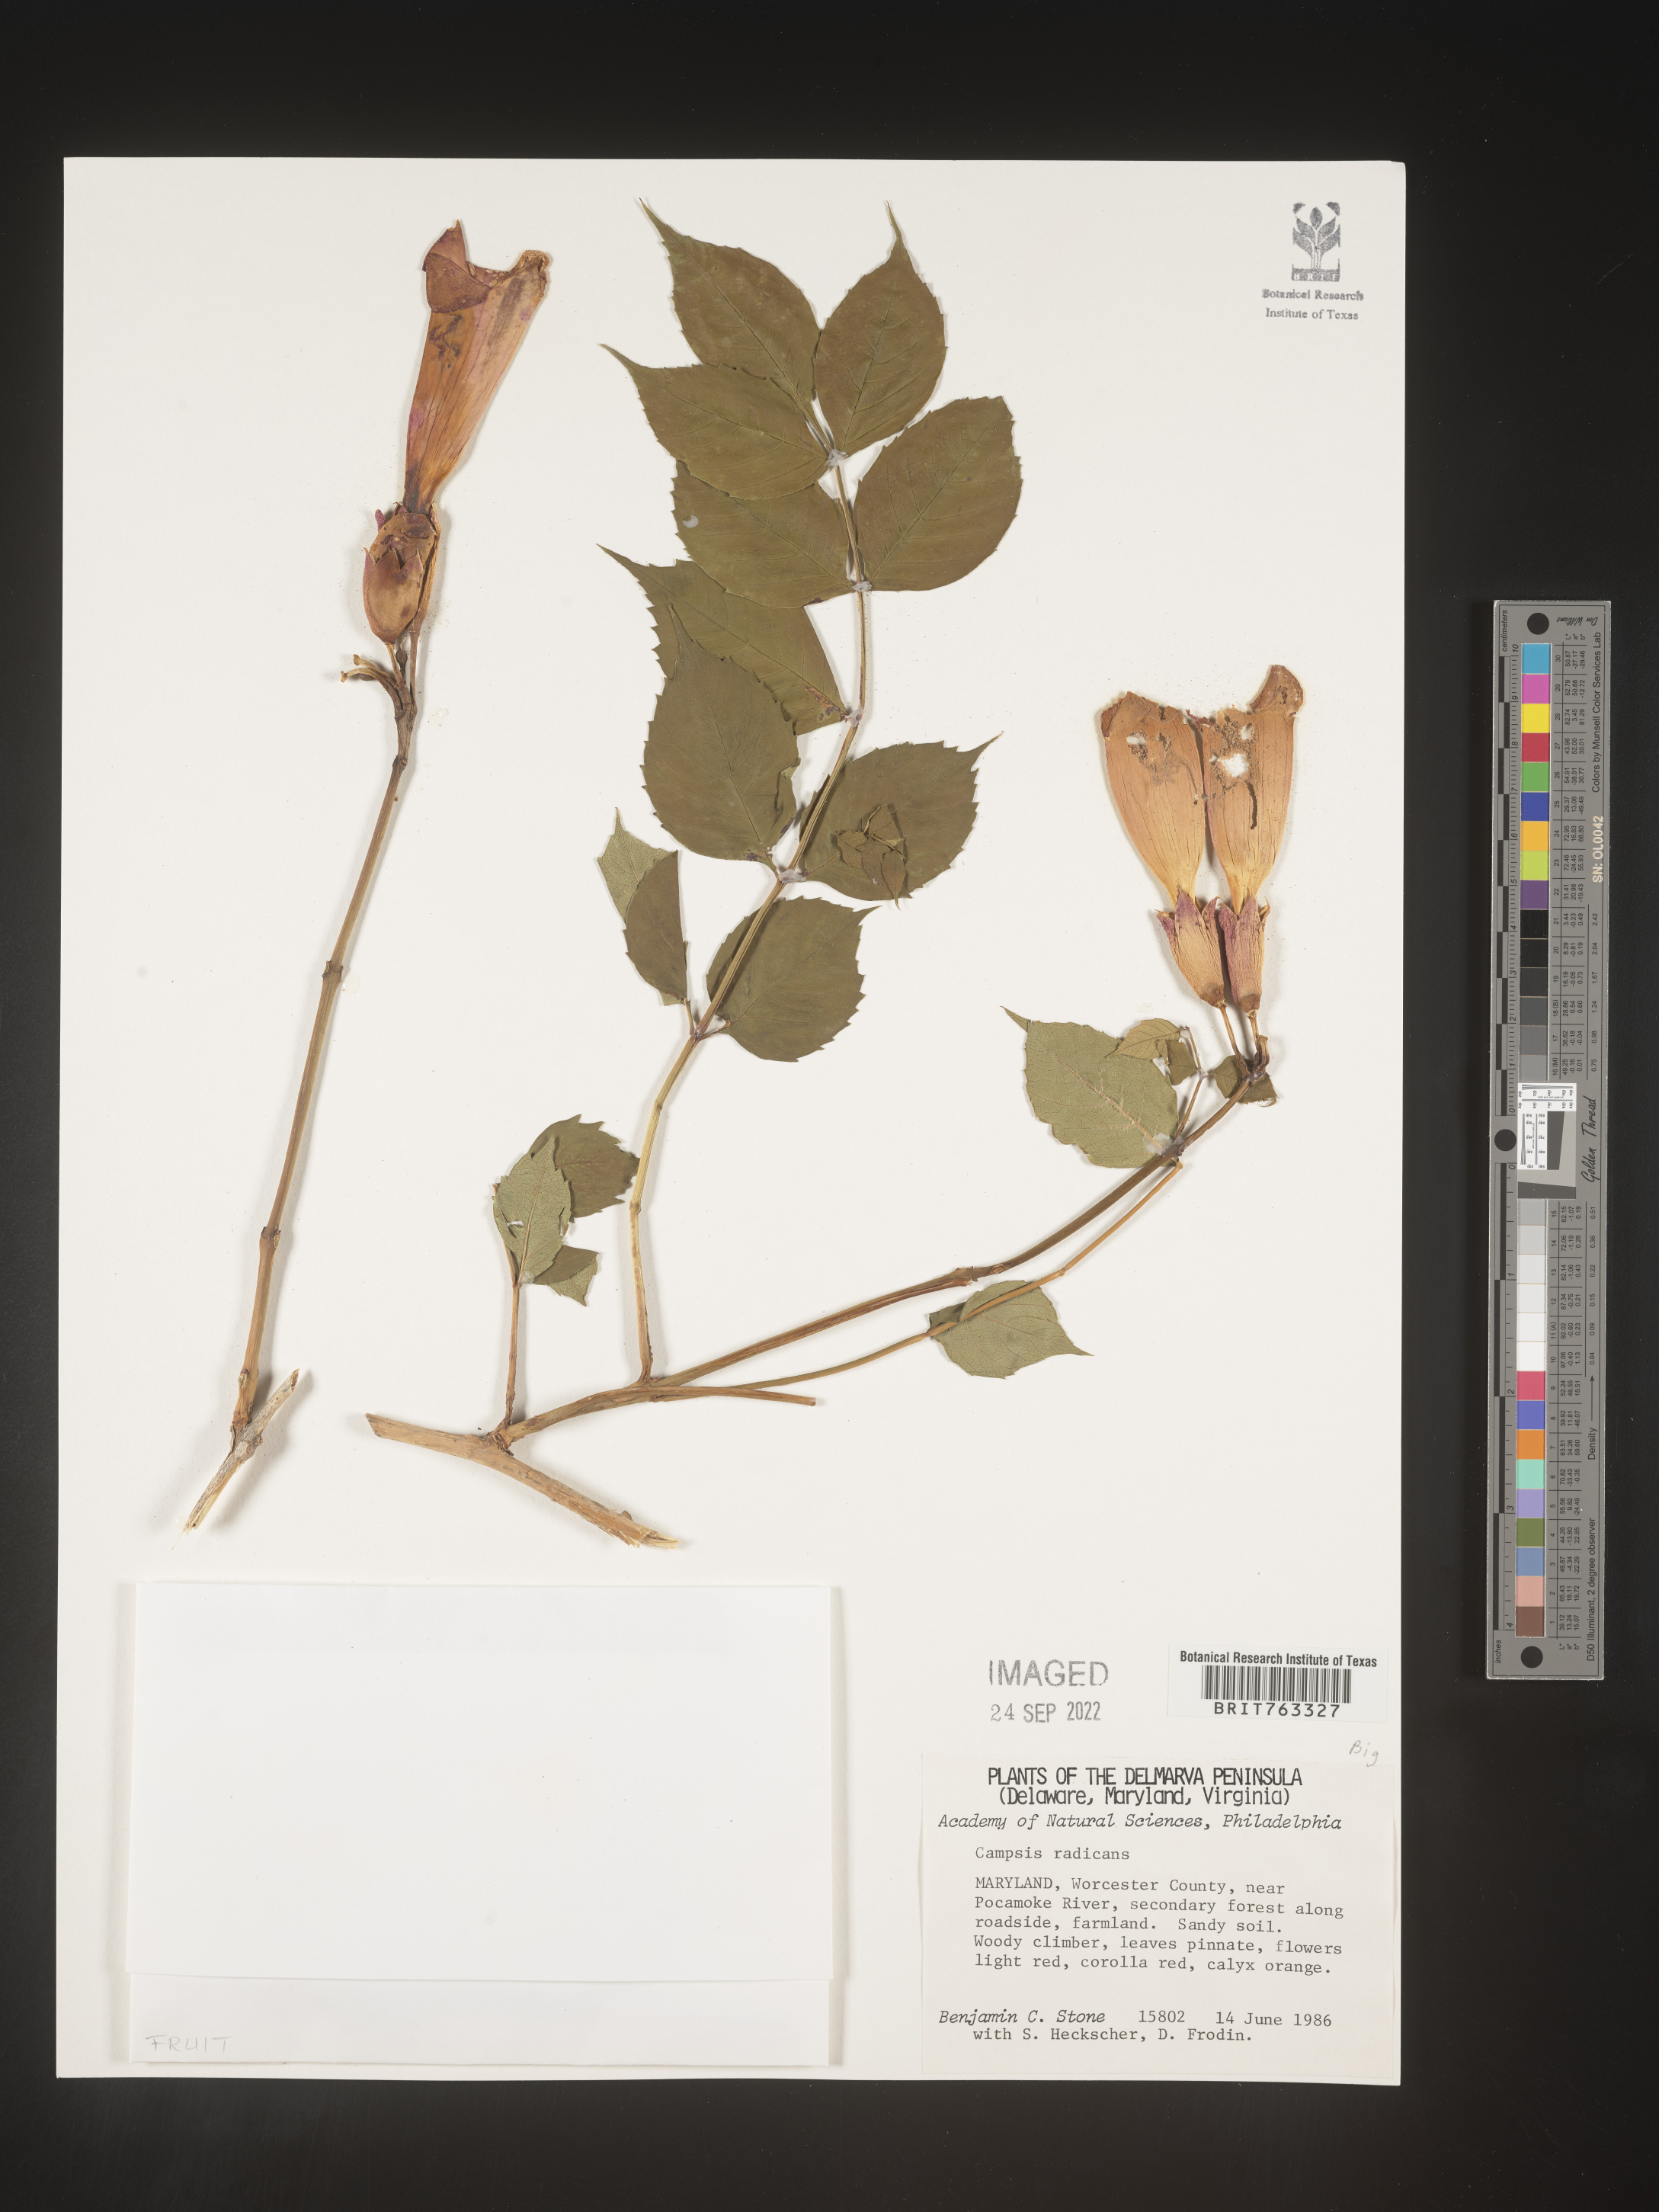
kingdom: Plantae
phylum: Tracheophyta
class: Magnoliopsida
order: Lamiales
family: Bignoniaceae
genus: Campsis
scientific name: Campsis radicans
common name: Trumpet-creeper
